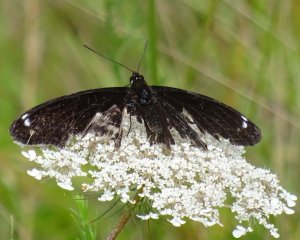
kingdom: Animalia
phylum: Arthropoda
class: Insecta
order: Lepidoptera
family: Nymphalidae
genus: Limenitis
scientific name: Limenitis arthemis
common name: Red-spotted Admiral
